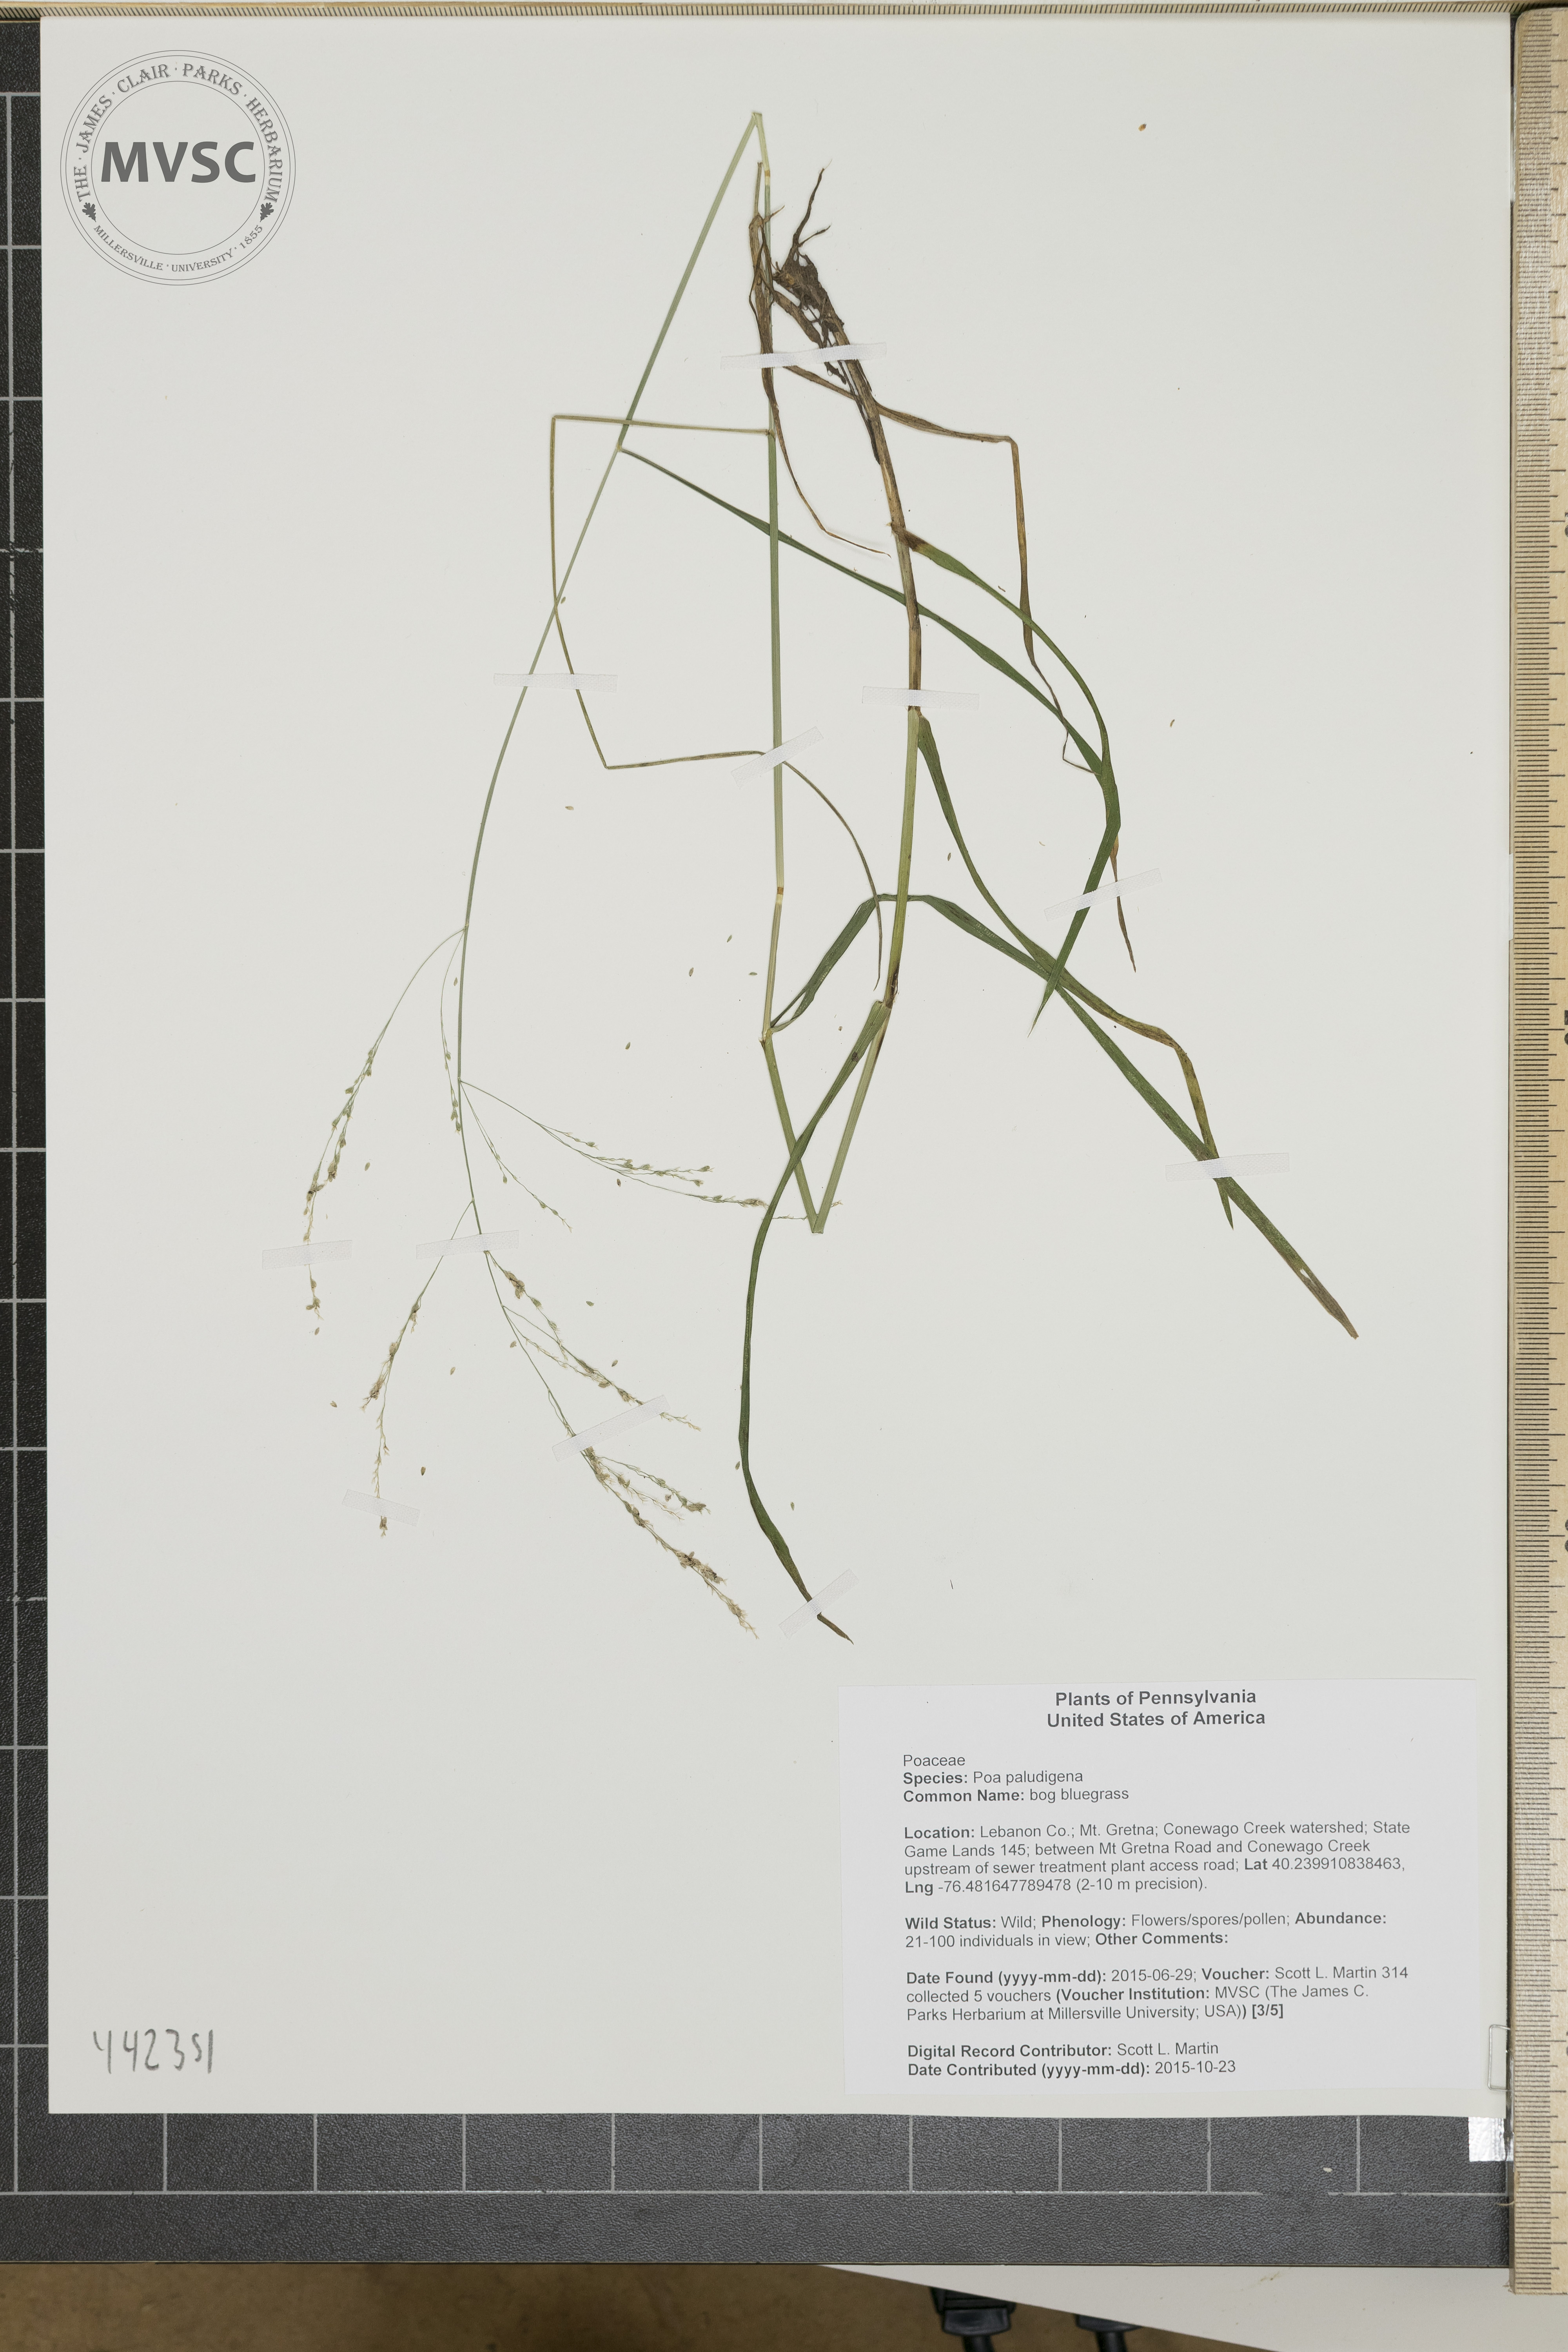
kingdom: Plantae
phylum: Tracheophyta
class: Liliopsida
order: Poales
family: Poaceae
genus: Glyceria
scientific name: Glyceria striata
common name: Fowl manna grass
